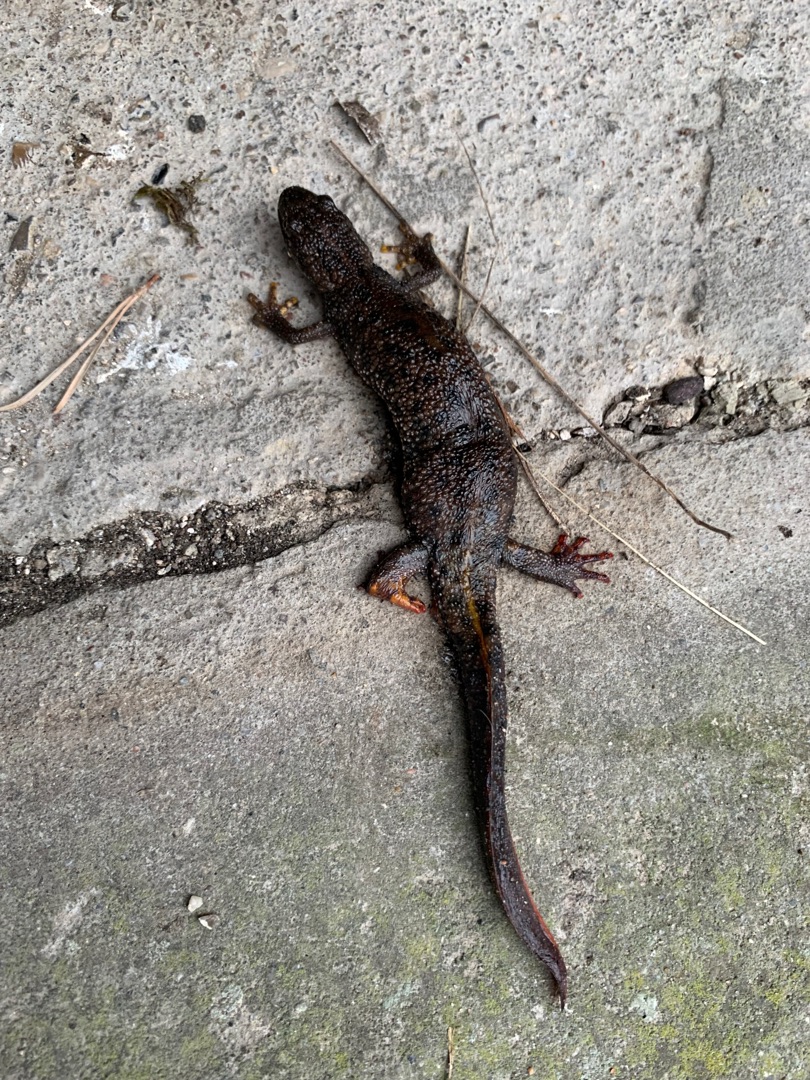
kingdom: Animalia
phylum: Chordata
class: Amphibia
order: Caudata
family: Salamandridae
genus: Triturus
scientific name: Triturus cristatus
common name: Stor vandsalamander
